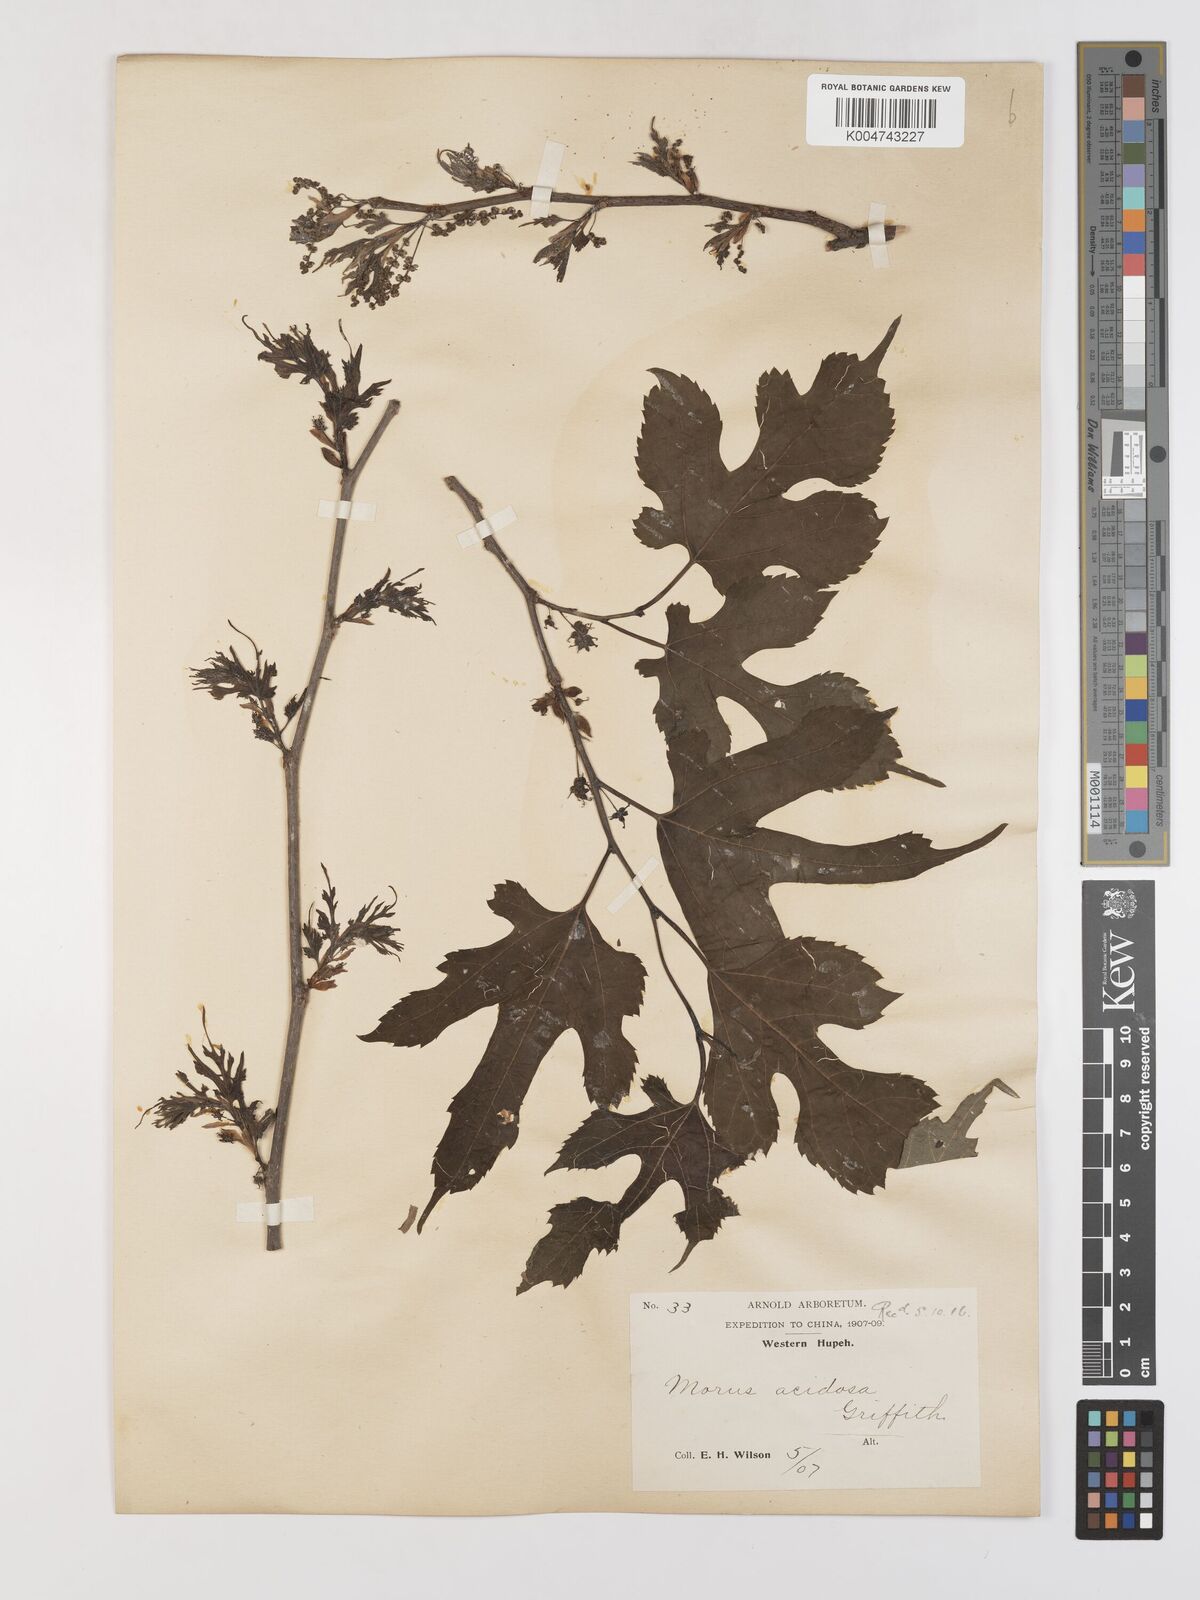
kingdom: Plantae
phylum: Tracheophyta
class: Magnoliopsida
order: Rosales
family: Moraceae
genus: Morus
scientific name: Morus indica
